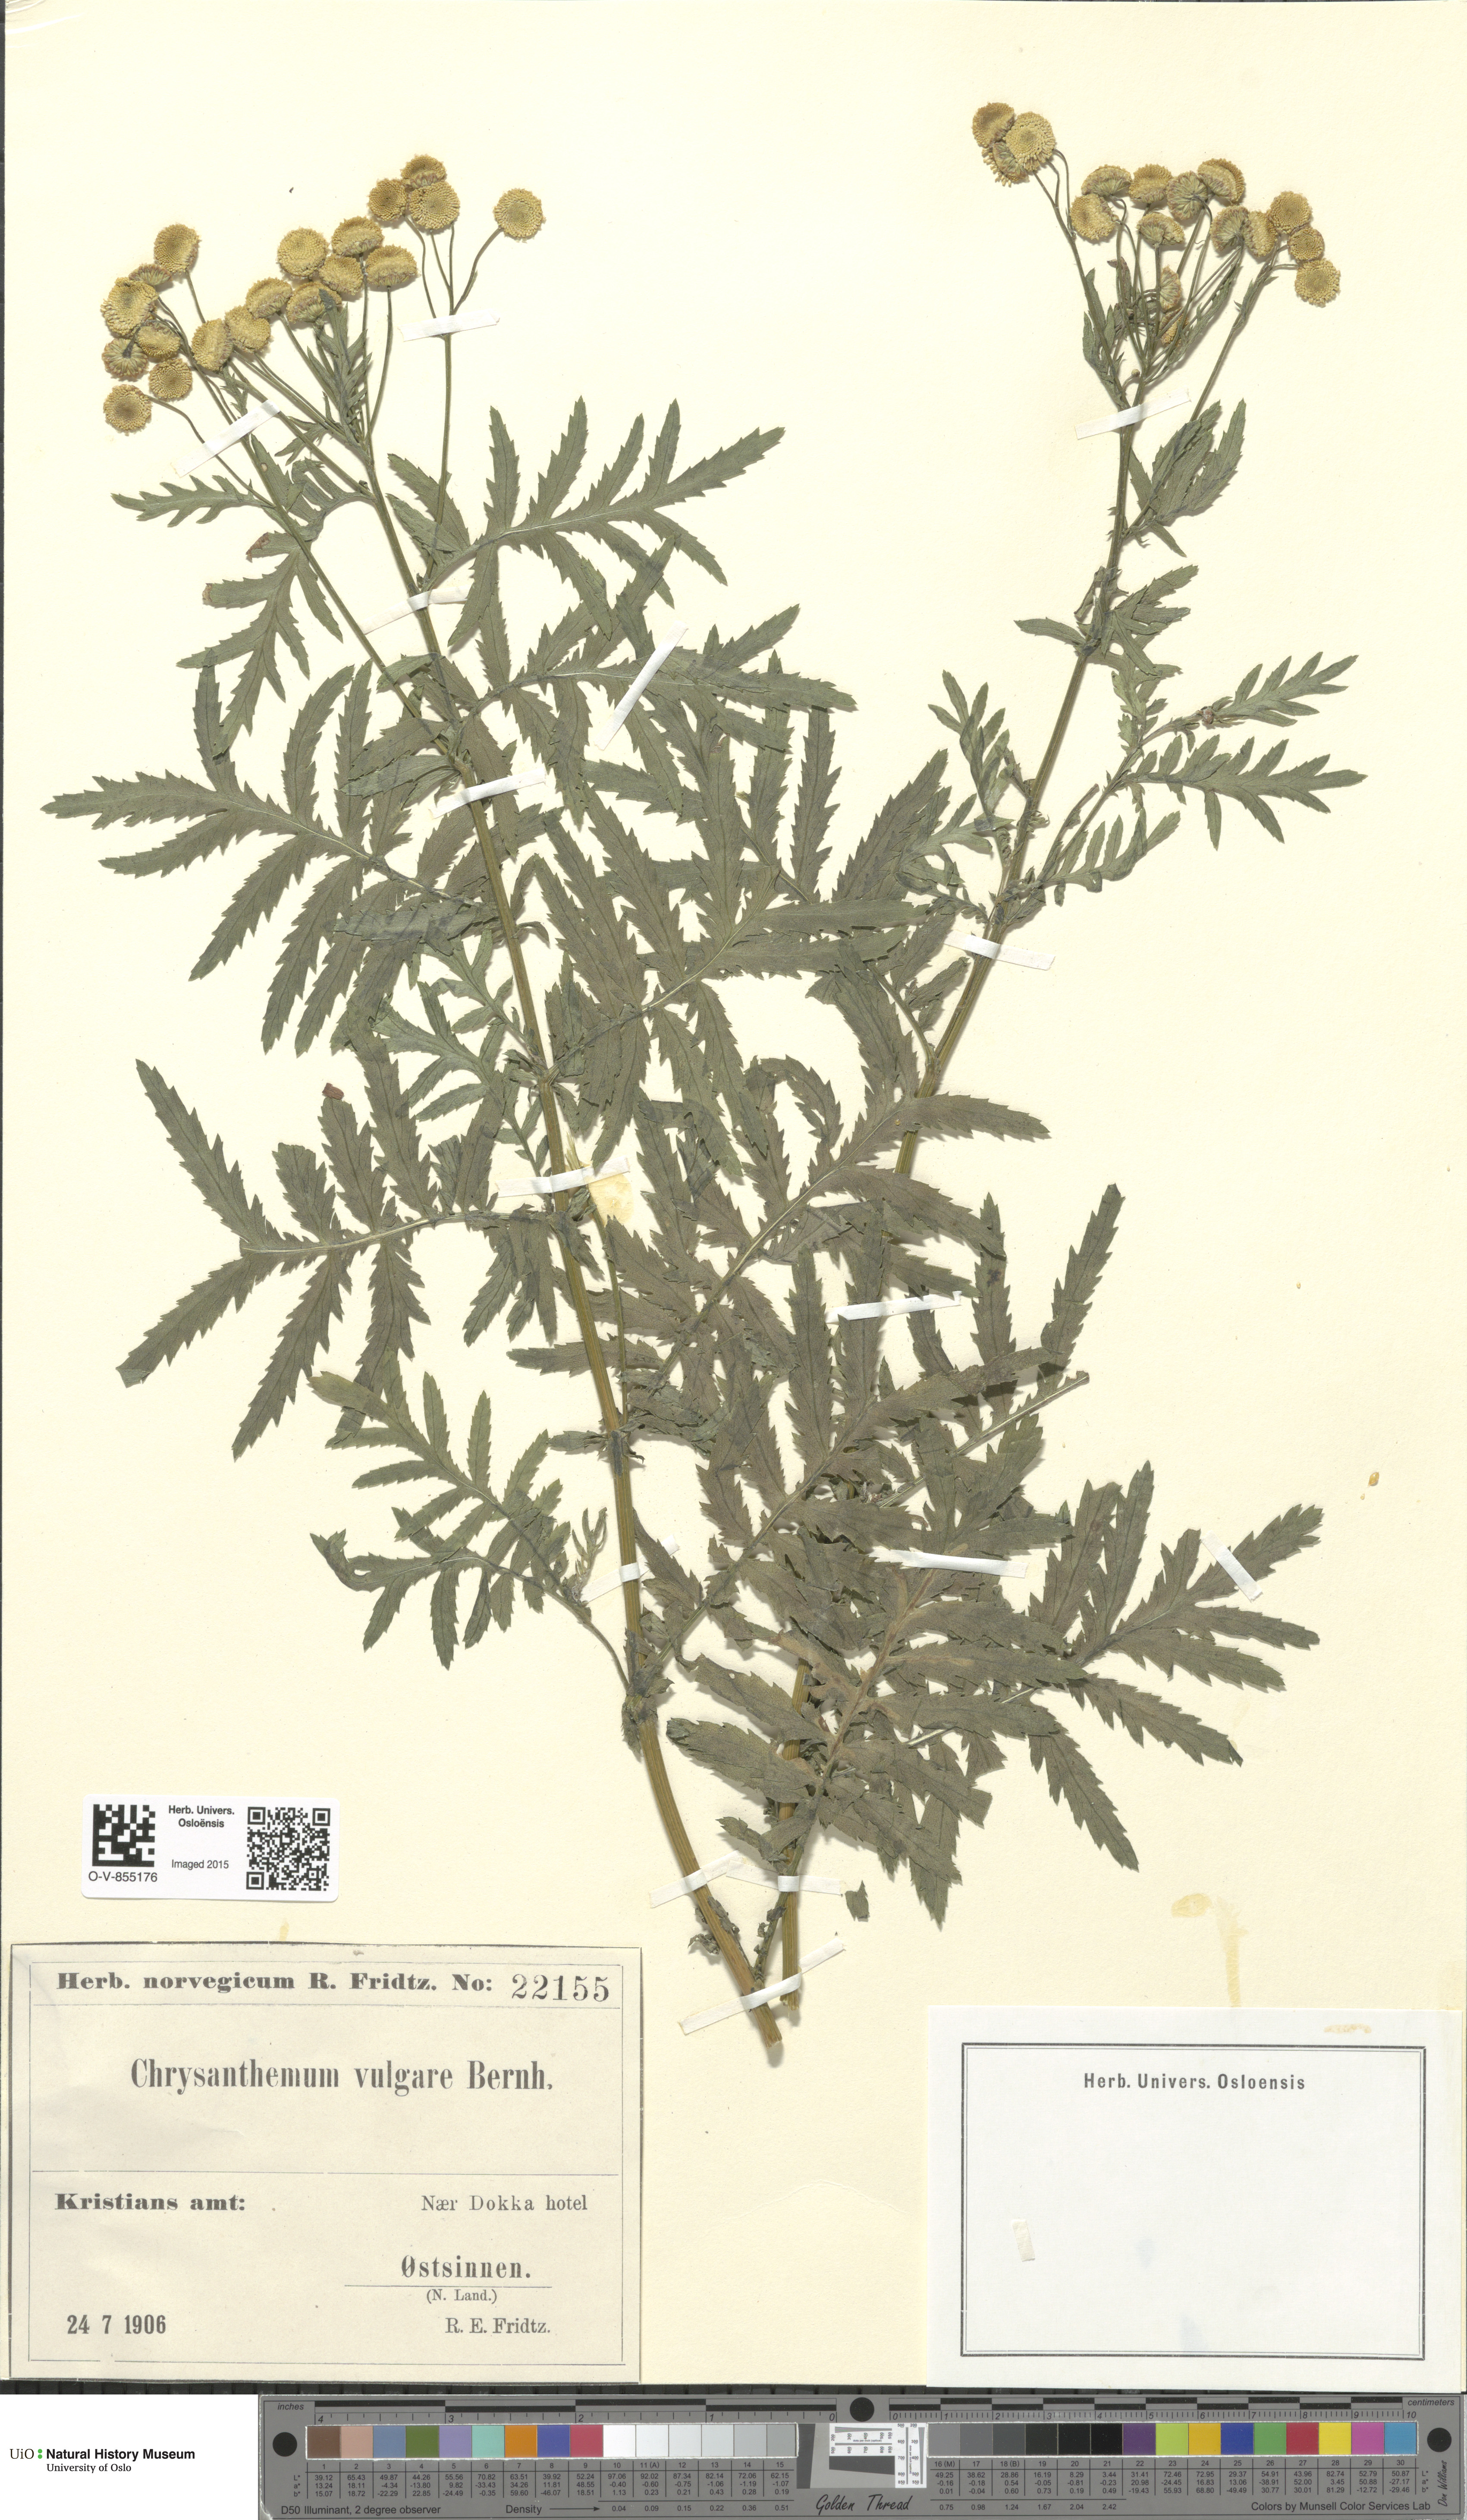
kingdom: Plantae
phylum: Tracheophyta
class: Magnoliopsida
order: Asterales
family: Asteraceae
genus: Tanacetum
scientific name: Tanacetum vulgare
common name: Common tansy
